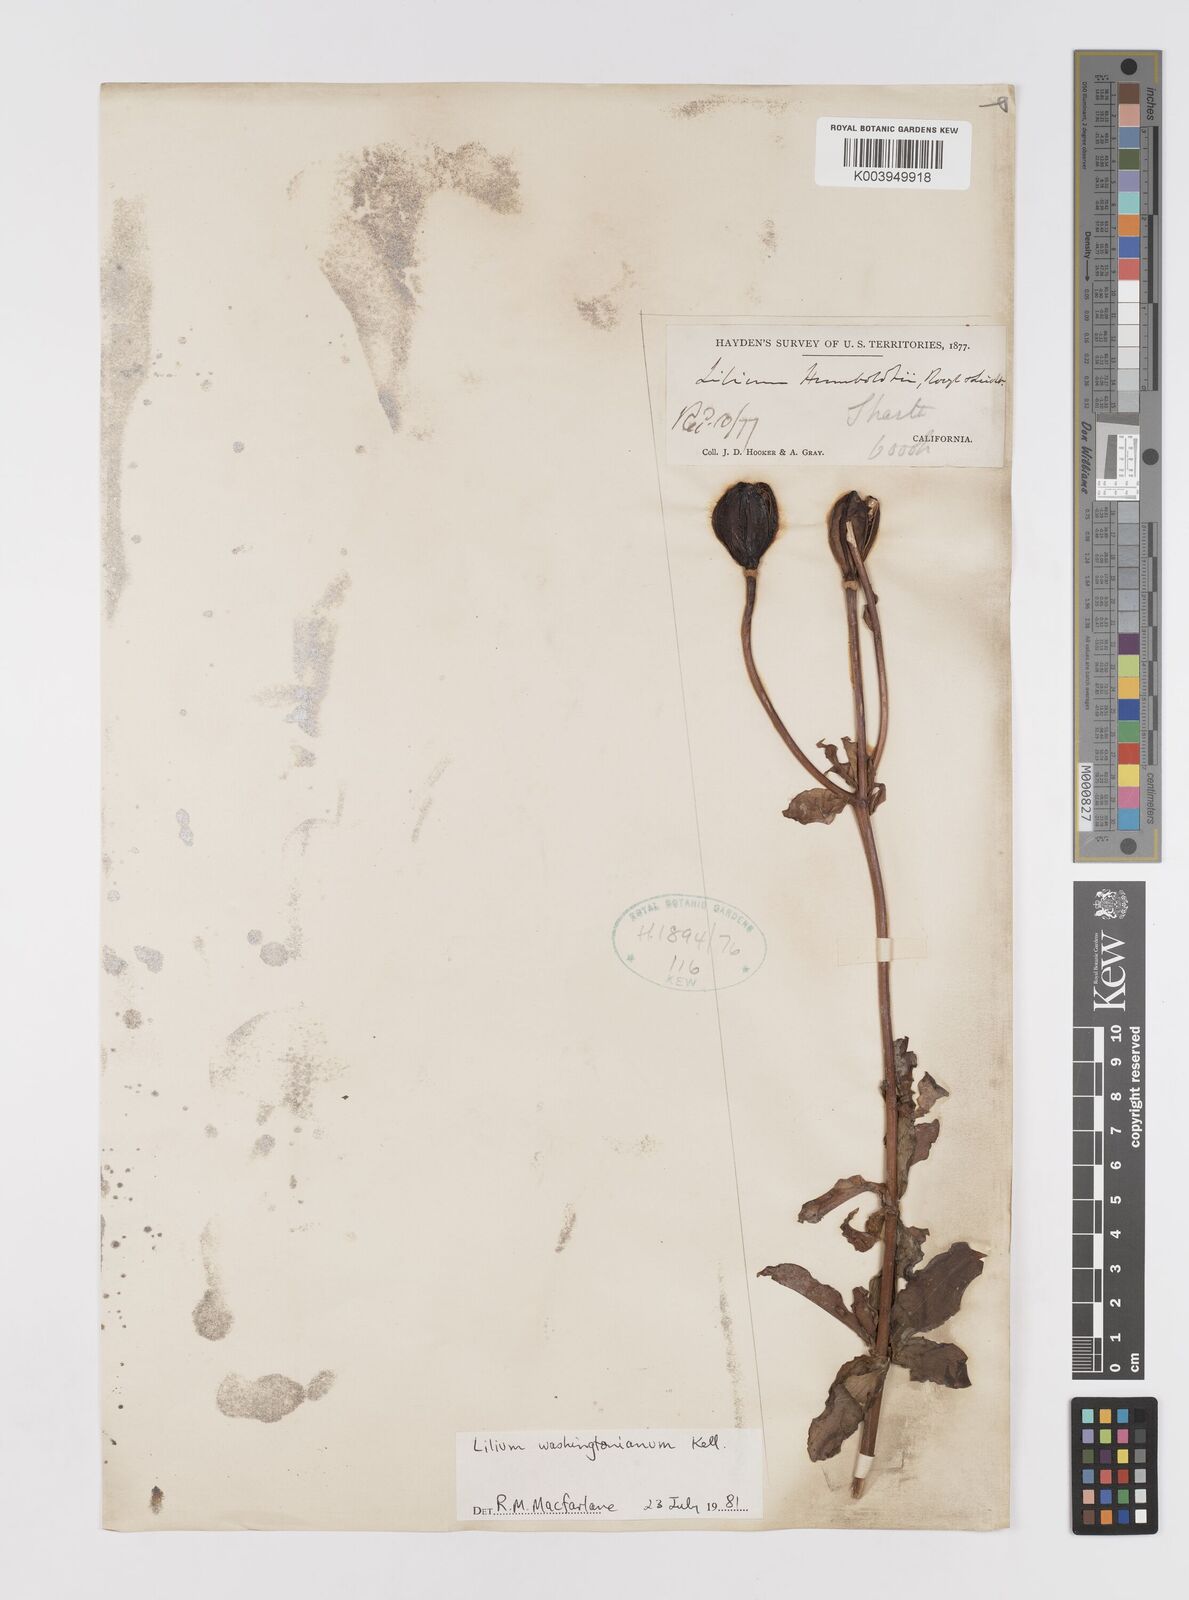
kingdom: Plantae
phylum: Tracheophyta
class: Liliopsida
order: Liliales
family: Liliaceae
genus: Lilium
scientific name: Lilium washingtonianum
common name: Washington lily
